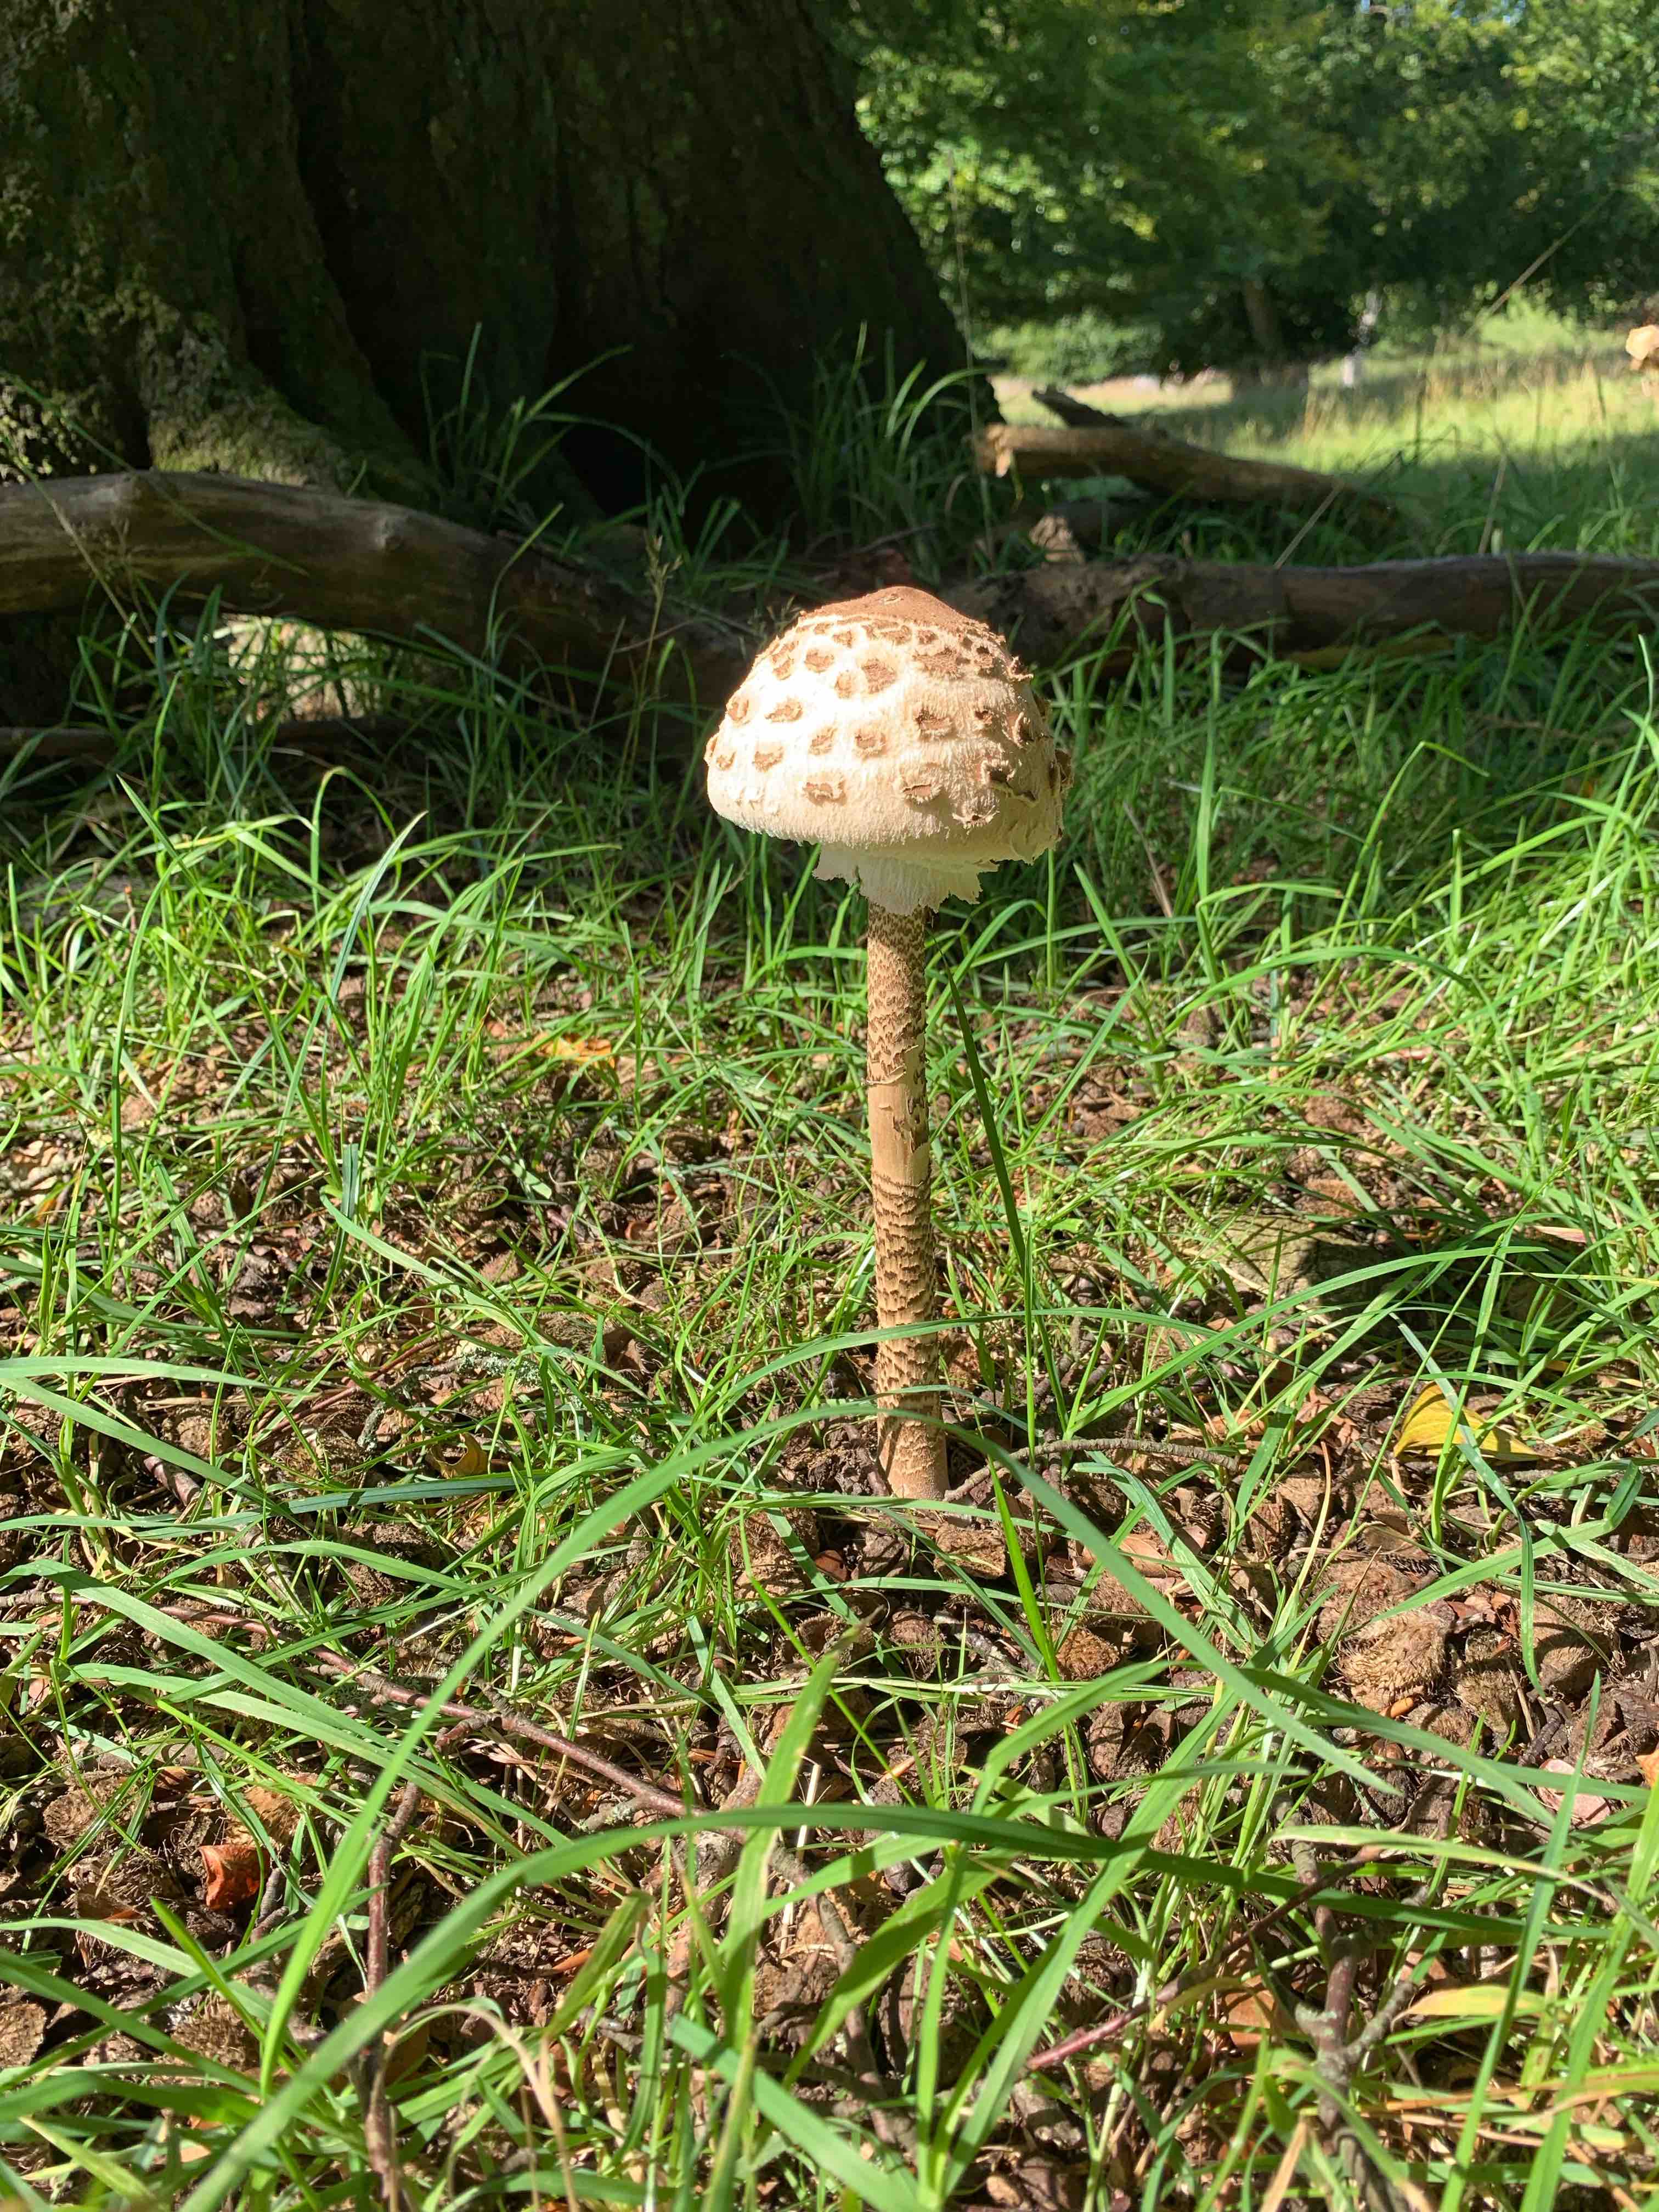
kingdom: Fungi
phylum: Basidiomycota
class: Agaricomycetes
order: Agaricales
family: Agaricaceae
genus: Macrolepiota
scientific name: Macrolepiota
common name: kæmpeparasolhat
